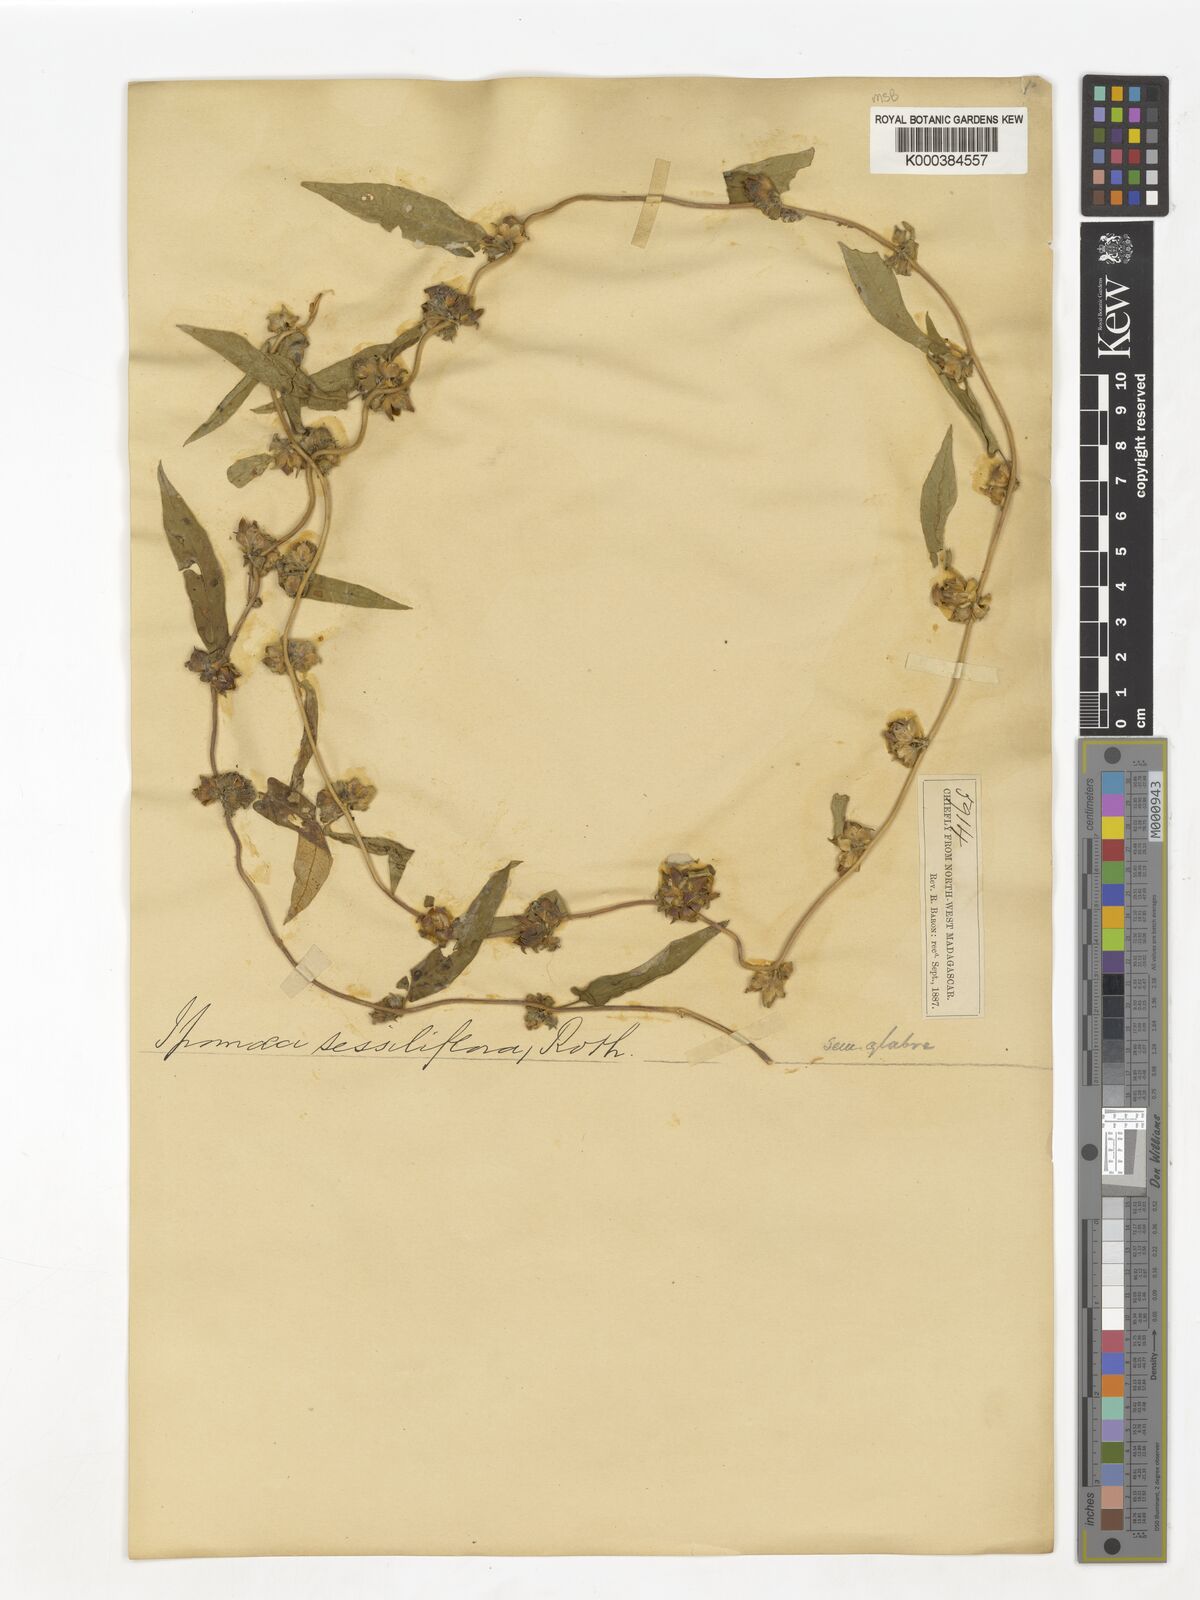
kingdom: Plantae
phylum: Tracheophyta
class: Magnoliopsida
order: Solanales
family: Convolvulaceae
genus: Ipomoea
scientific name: Ipomoea eriocarpa
